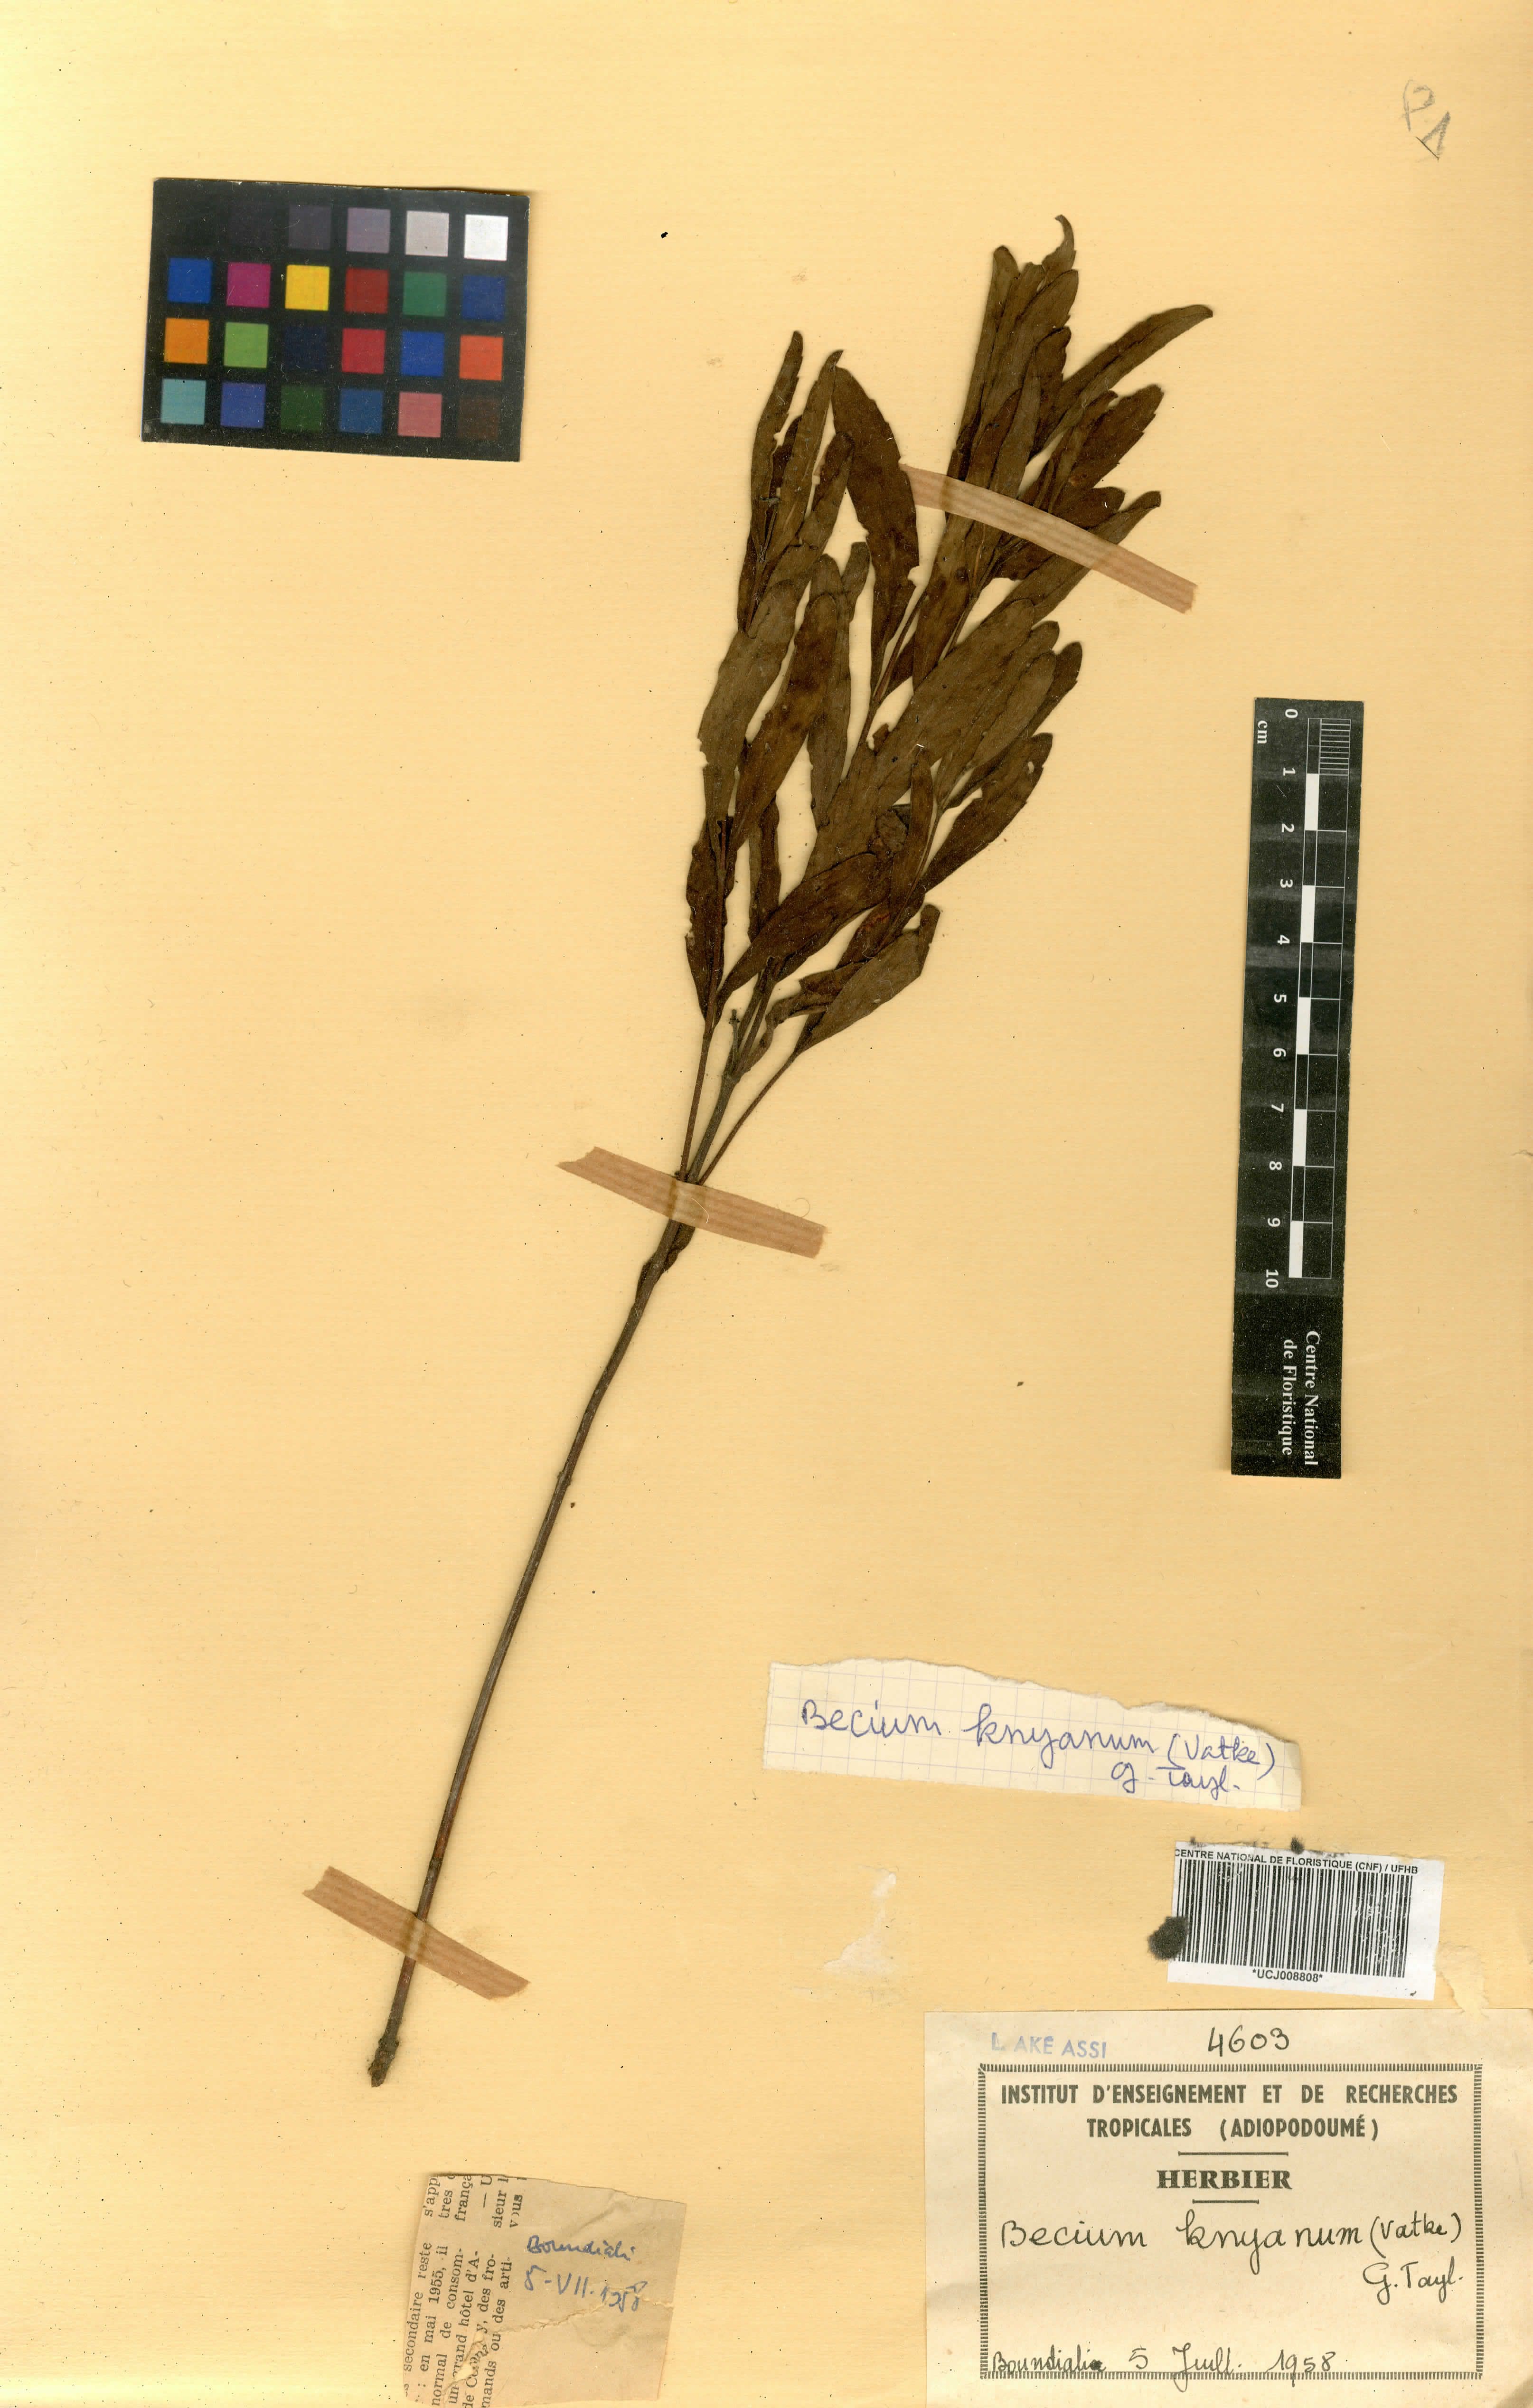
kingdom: Plantae
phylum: Tracheophyta
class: Magnoliopsida
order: Lamiales
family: Lamiaceae
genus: Ocimum
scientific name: Ocimum filamentosum
